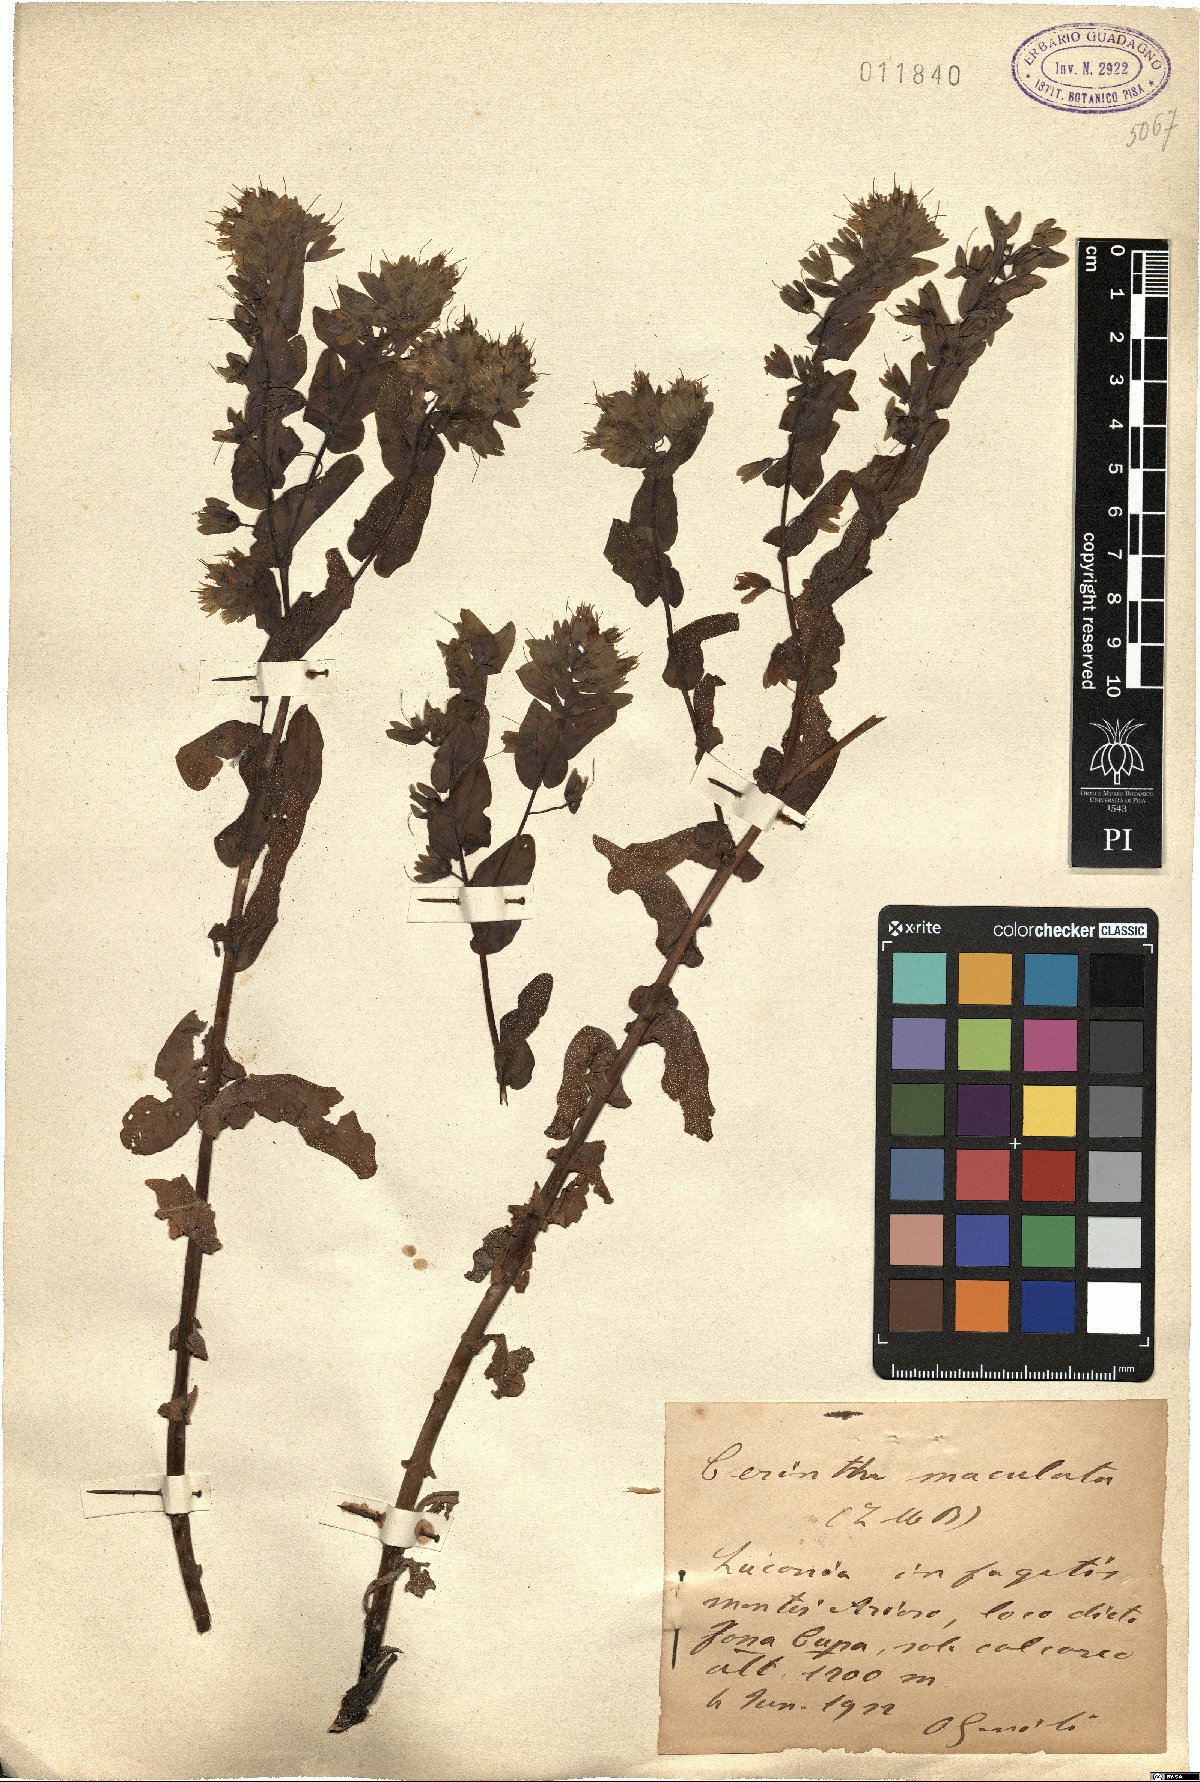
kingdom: Plantae
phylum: Tracheophyta
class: Magnoliopsida
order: Boraginales
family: Boraginaceae
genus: Cerinthe
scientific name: Cerinthe minor
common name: Lesser honeywort
